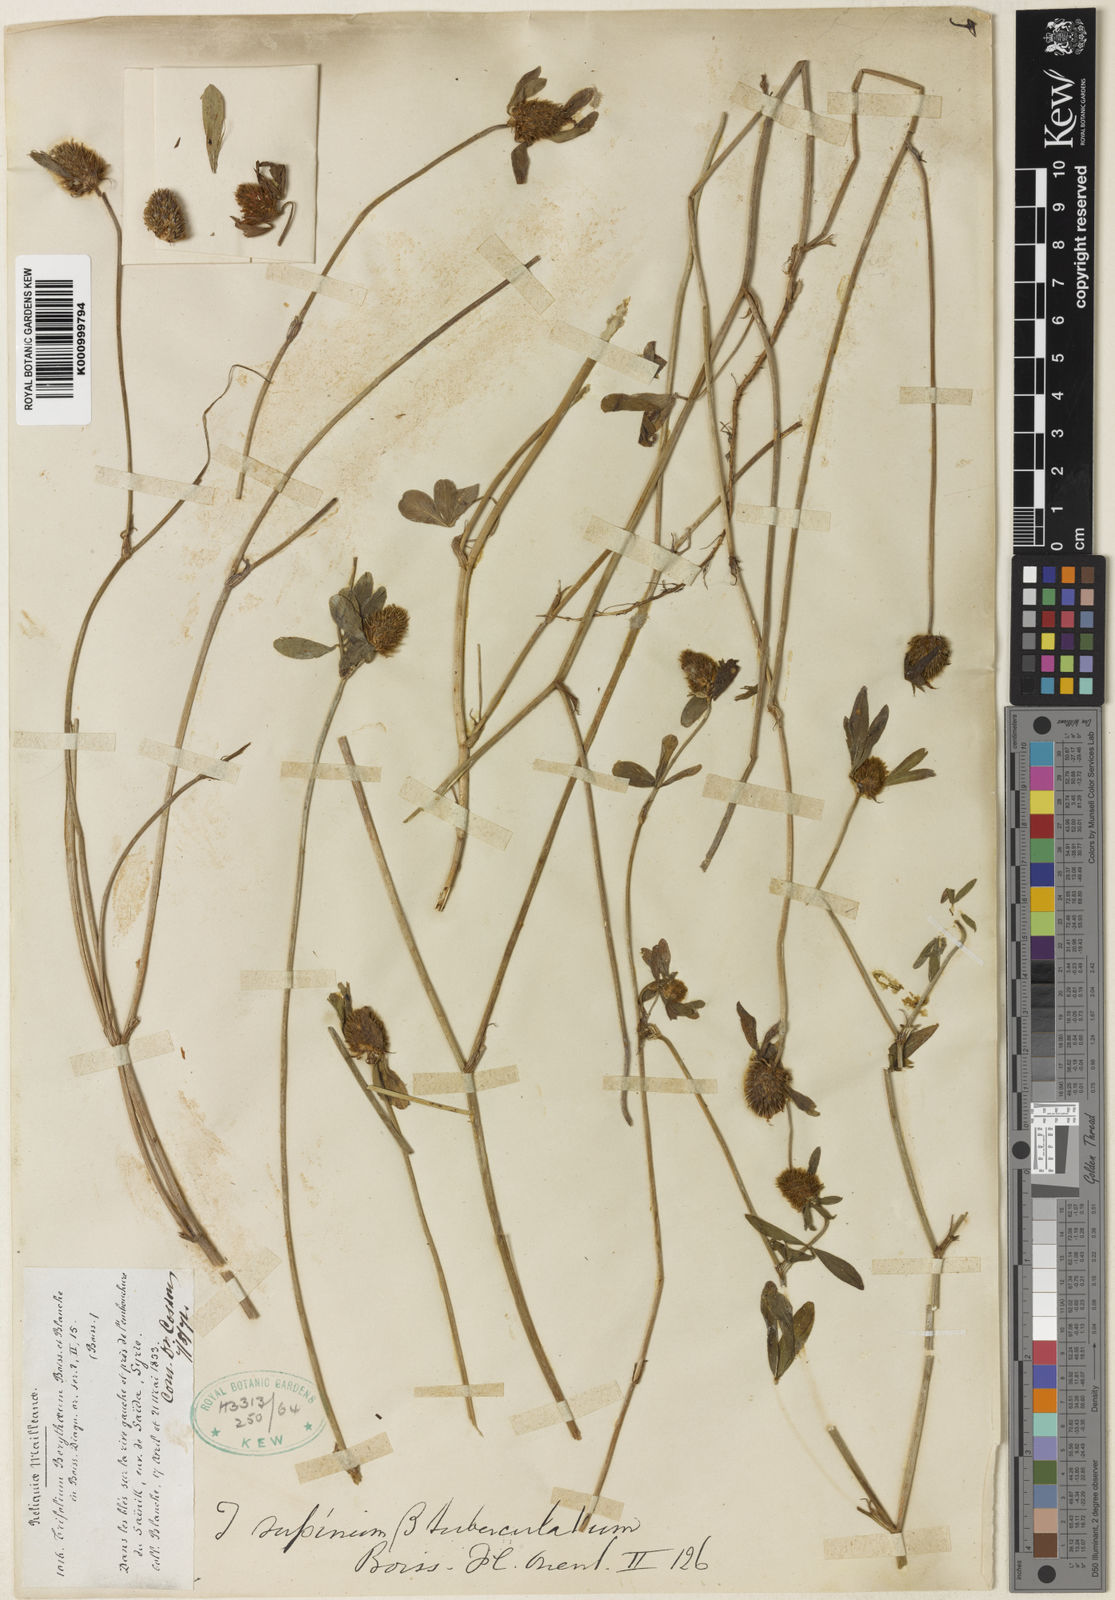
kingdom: Plantae
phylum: Tracheophyta
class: Magnoliopsida
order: Fabales
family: Fabaceae
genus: Trifolium
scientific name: Trifolium berytheum
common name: Beirut clover
